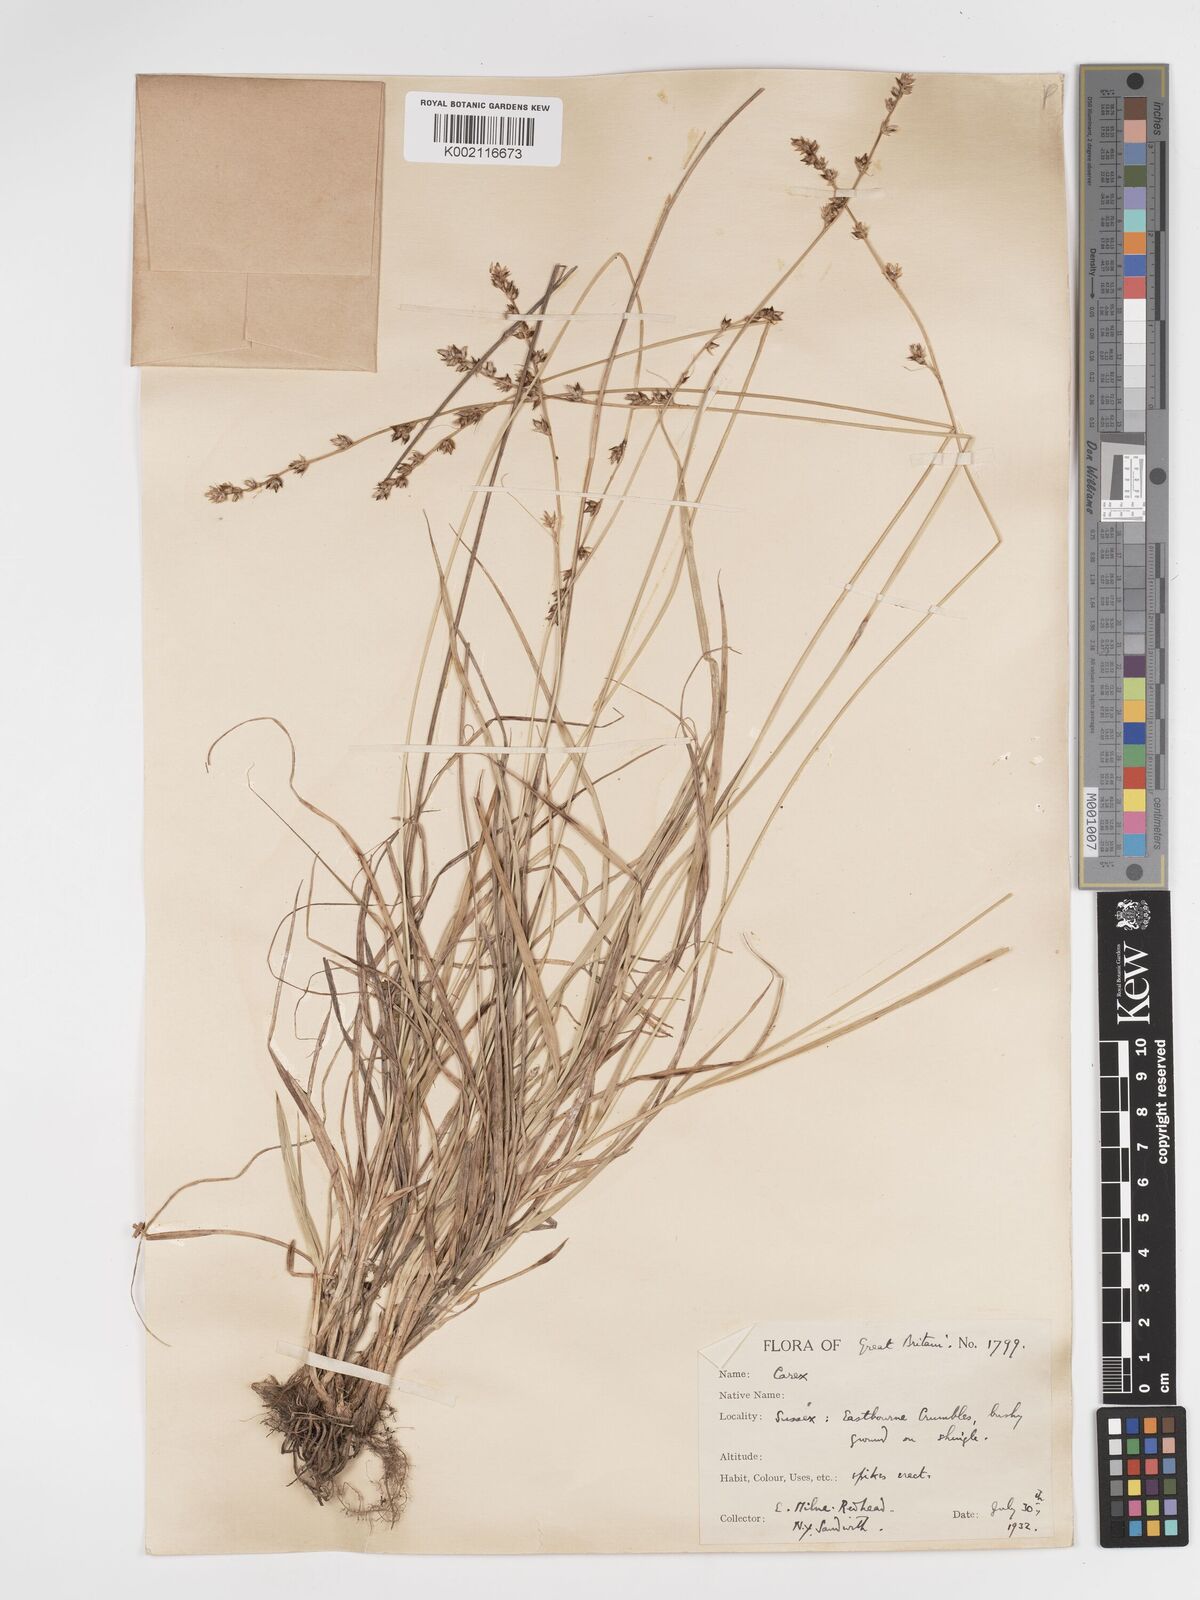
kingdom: Plantae
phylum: Tracheophyta
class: Liliopsida
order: Poales
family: Cyperaceae
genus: Carex
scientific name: Carex divulsa
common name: Grassland sedge
